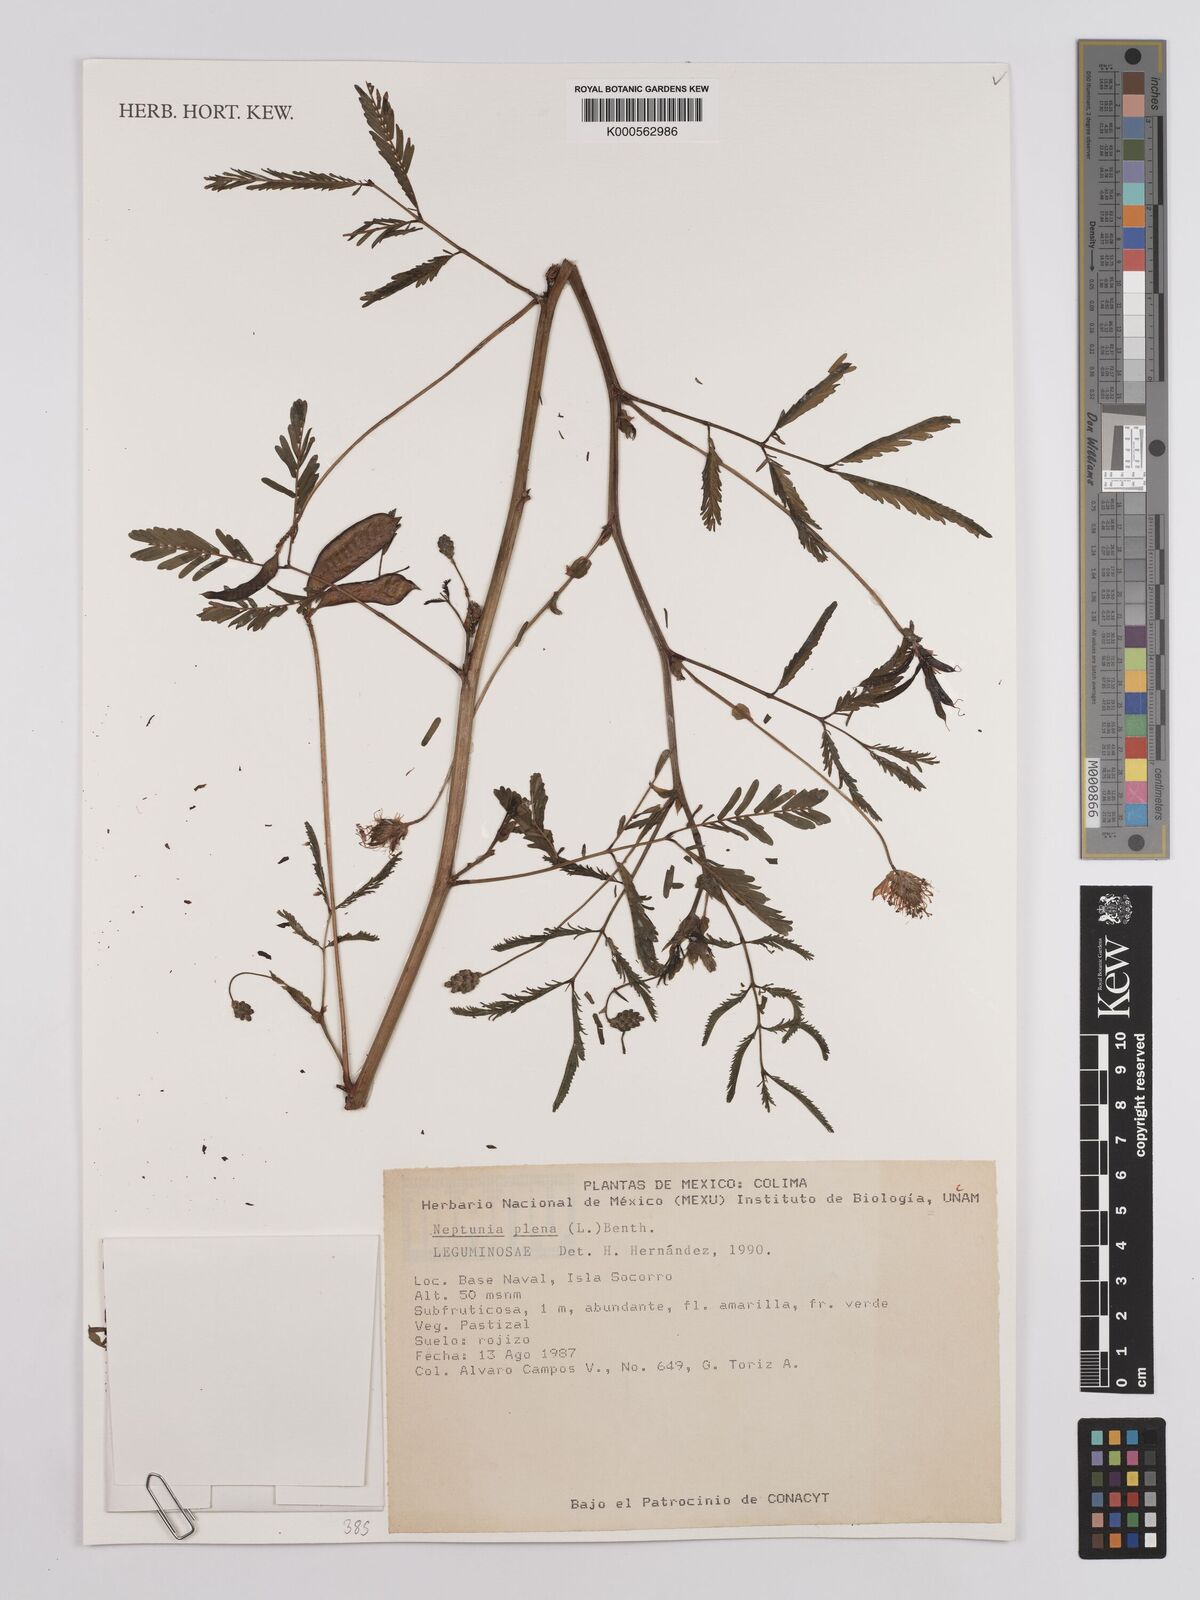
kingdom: Plantae
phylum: Tracheophyta
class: Magnoliopsida
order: Fabales
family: Fabaceae
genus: Neptunia
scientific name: Neptunia plena
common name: Dead and awake
